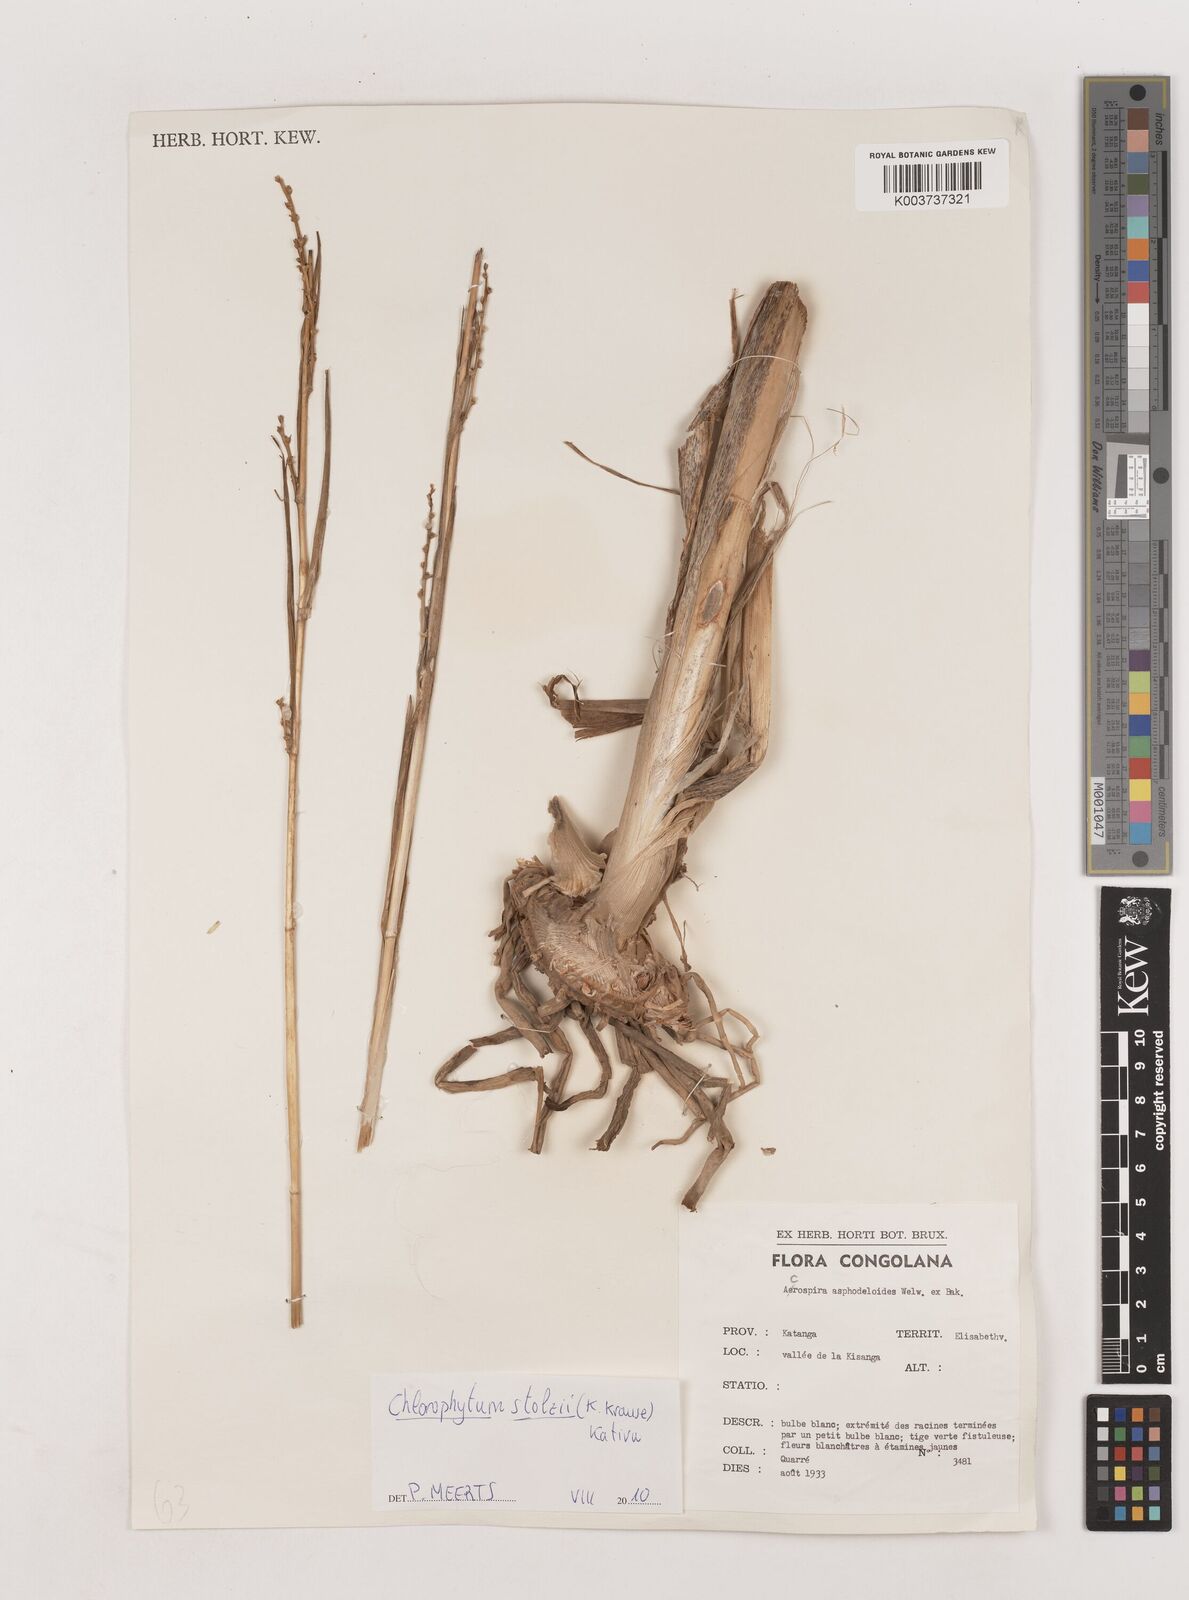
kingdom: Plantae
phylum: Tracheophyta
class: Liliopsida
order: Asparagales
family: Asparagaceae
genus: Chlorophytum
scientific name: Chlorophytum stolzii
